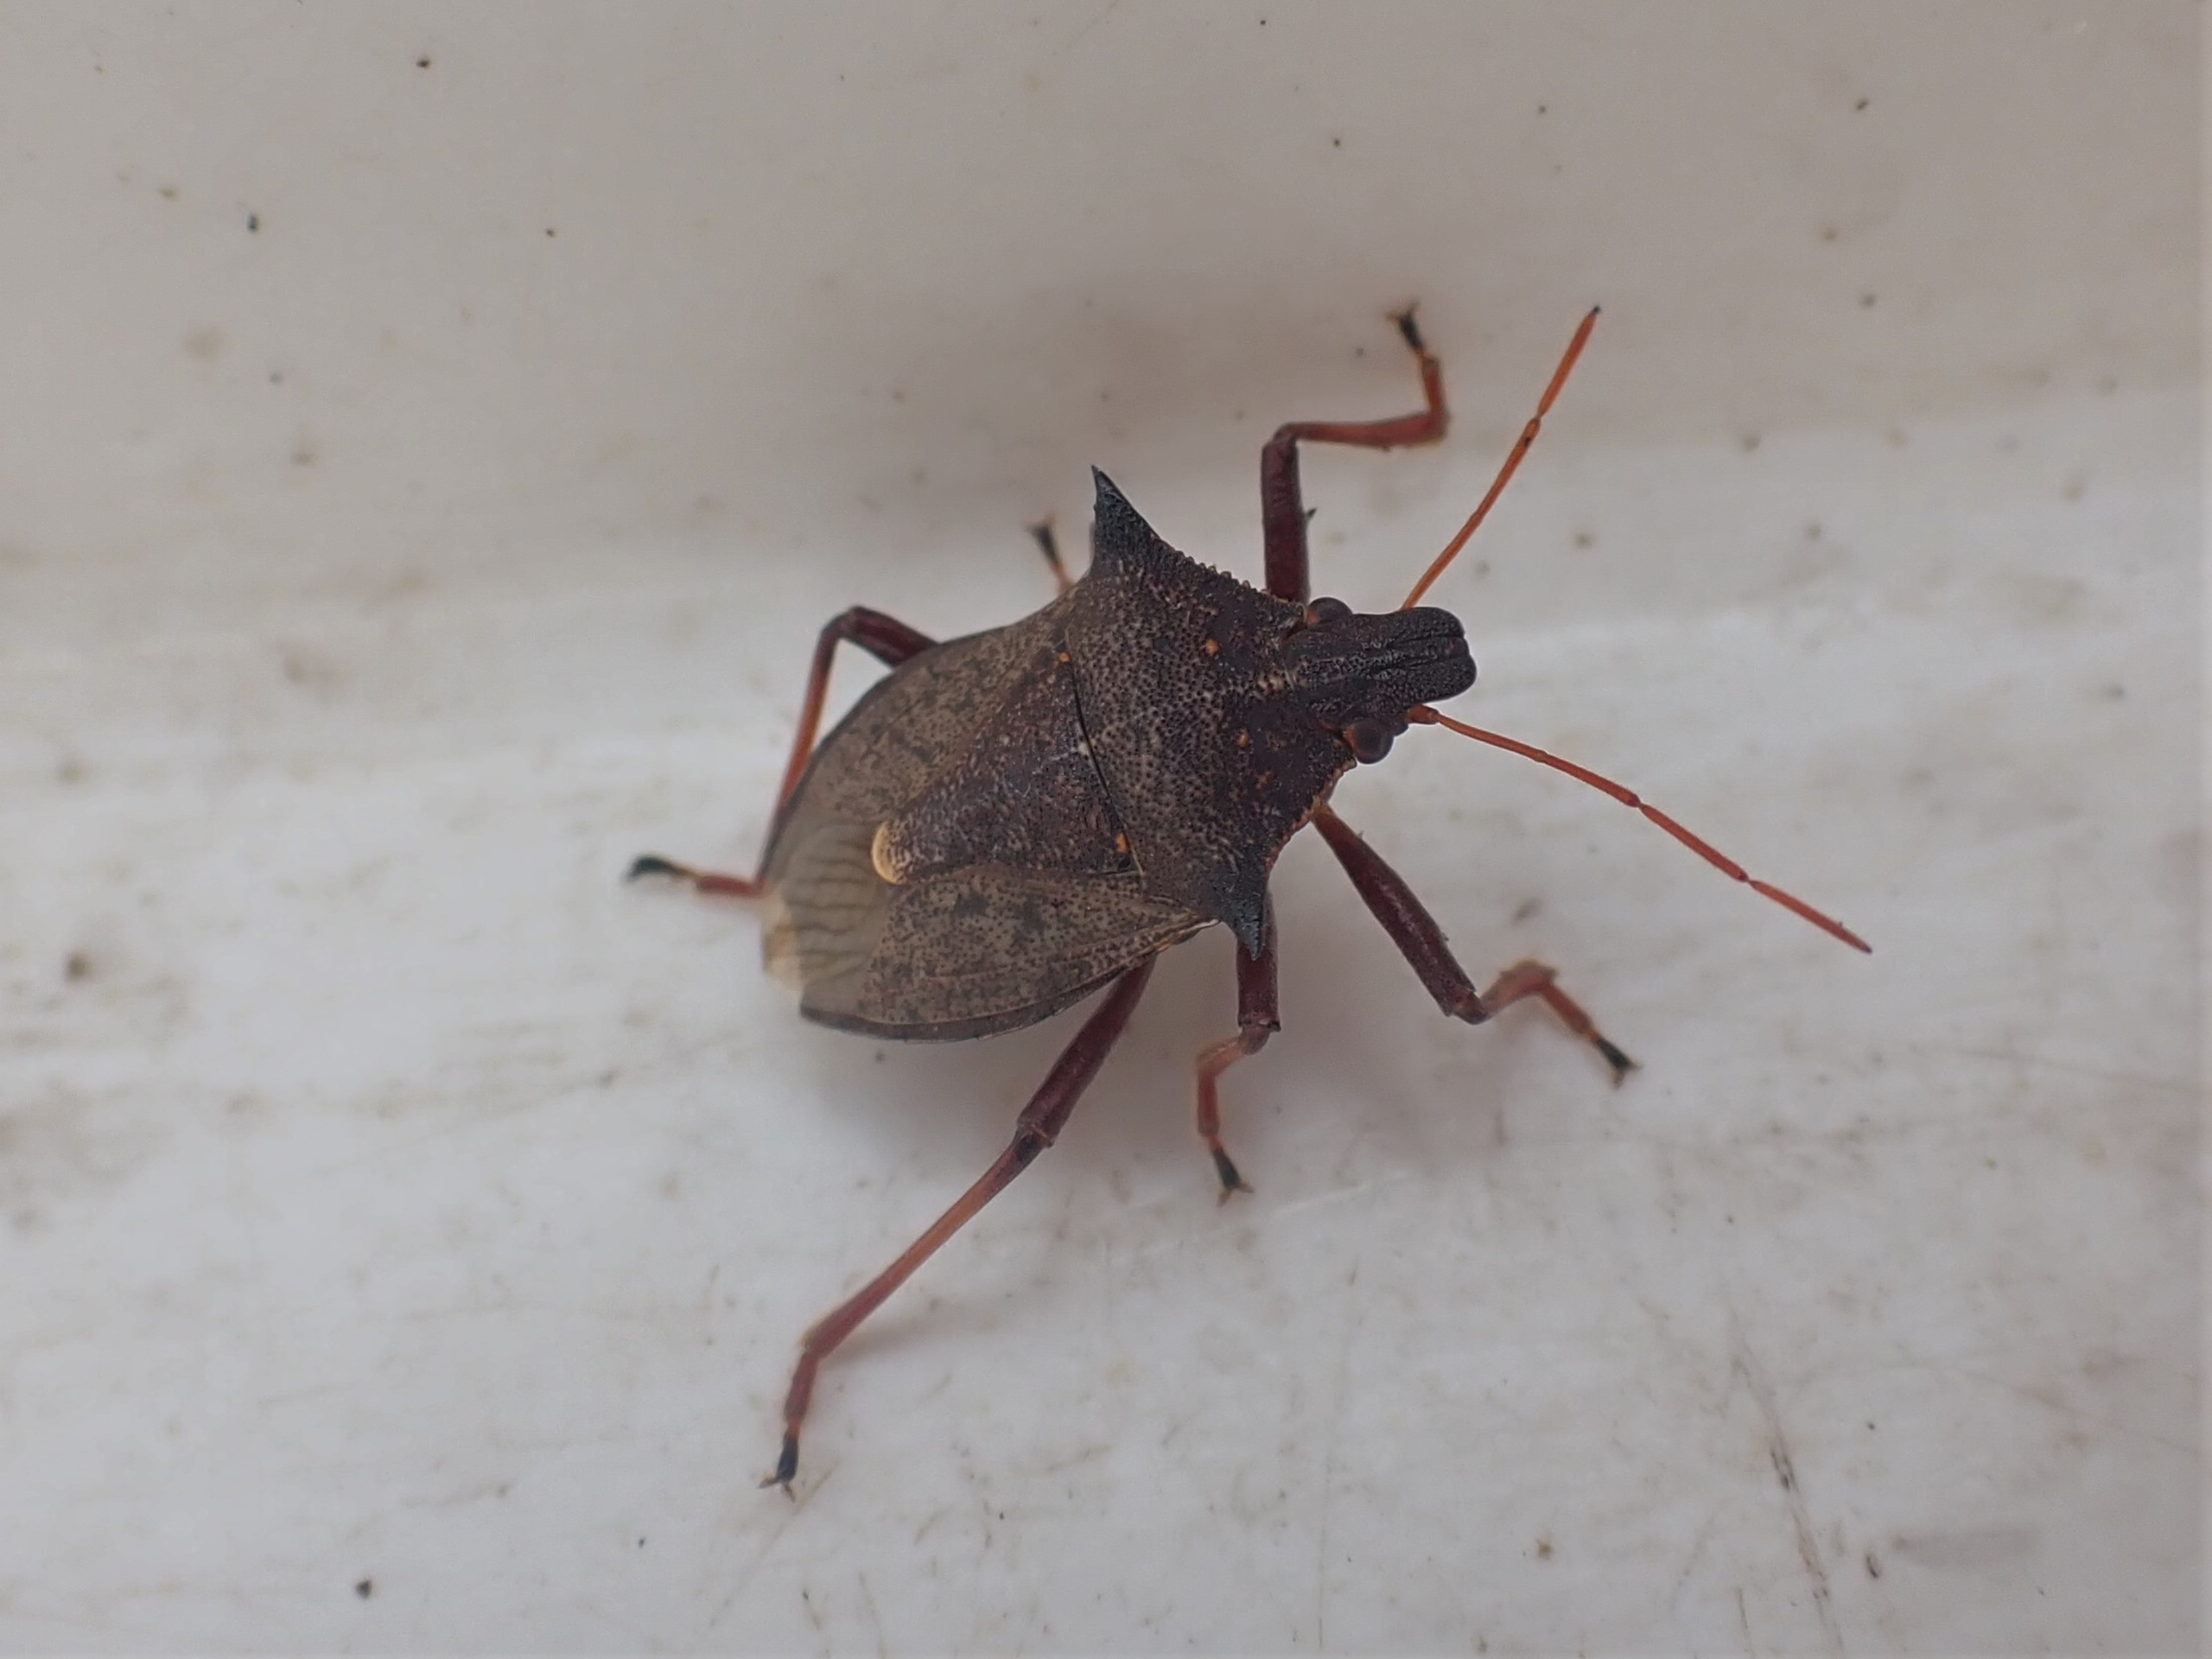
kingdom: Animalia
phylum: Arthropoda
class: Insecta
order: Hemiptera
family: Pentatomidae
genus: Picromerus
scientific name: Picromerus bidens
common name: Torntæge
